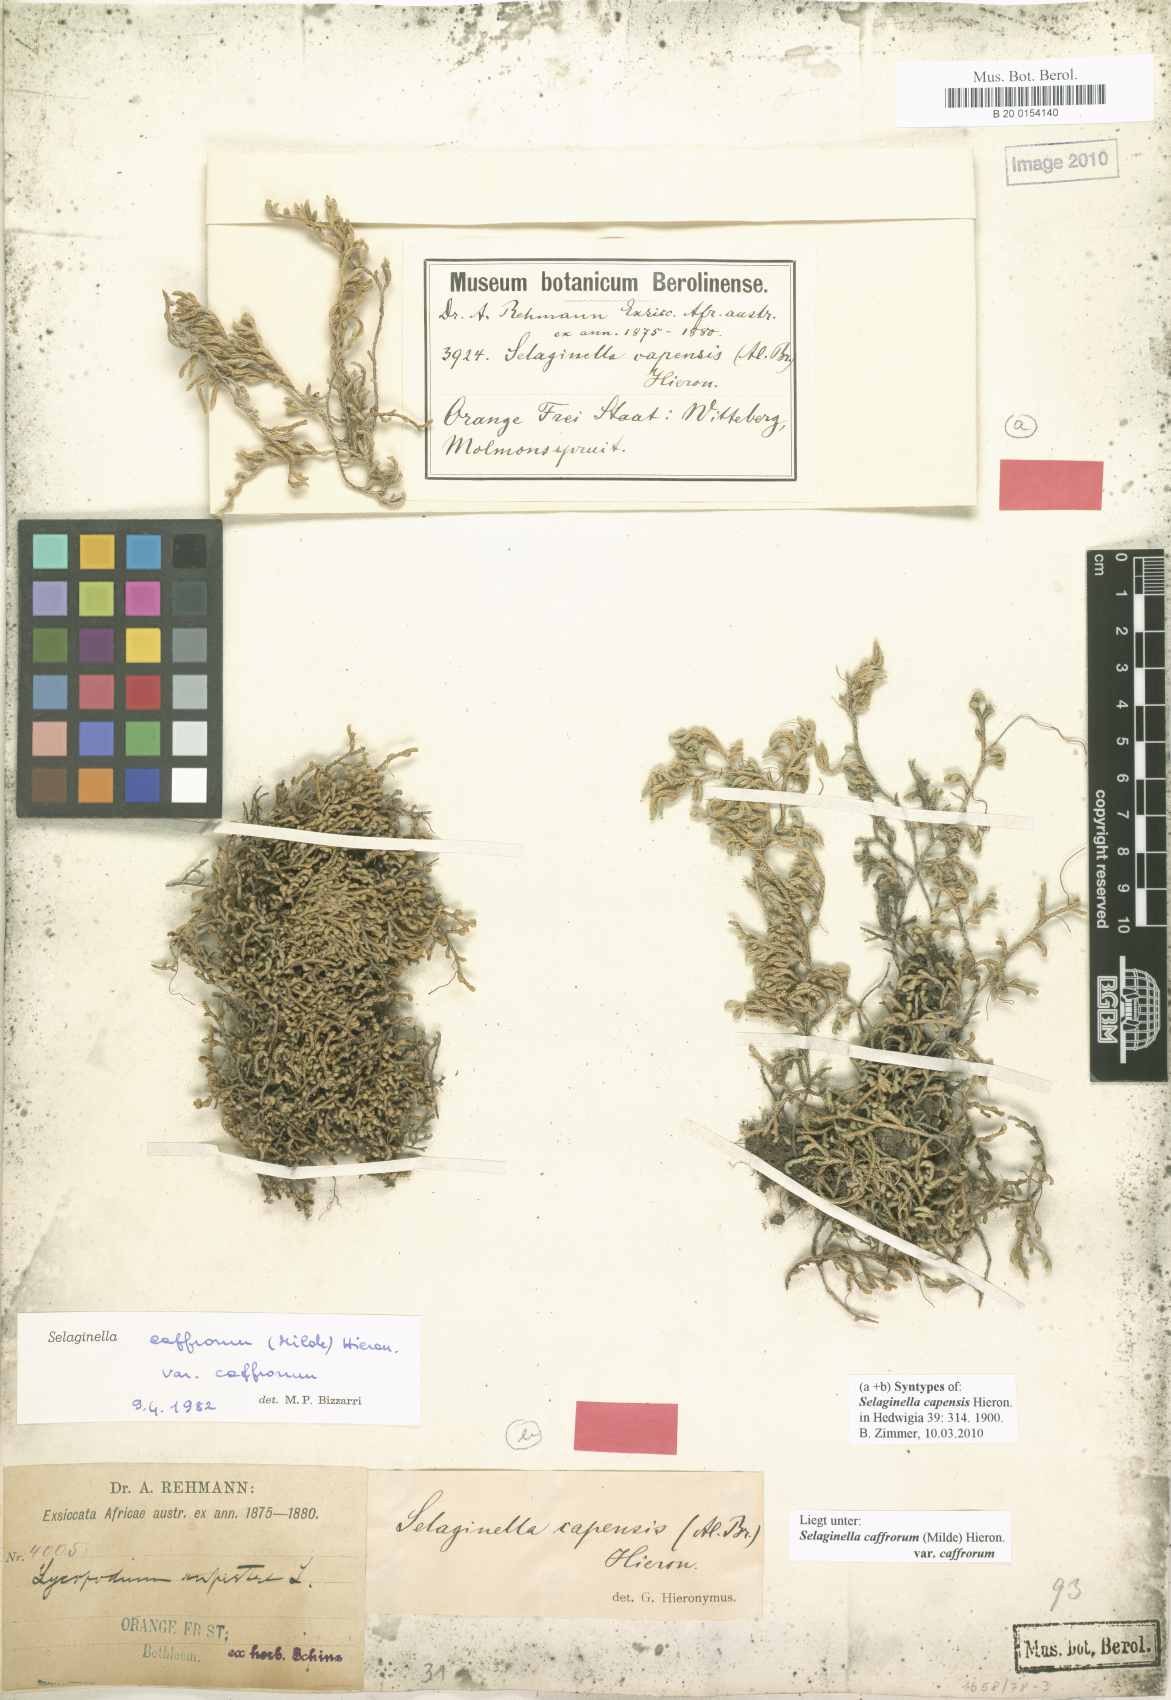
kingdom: Plantae
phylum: Tracheophyta
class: Lycopodiopsida
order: Selaginellales
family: Selaginellaceae
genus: Selaginella
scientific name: Selaginella caffrorum
